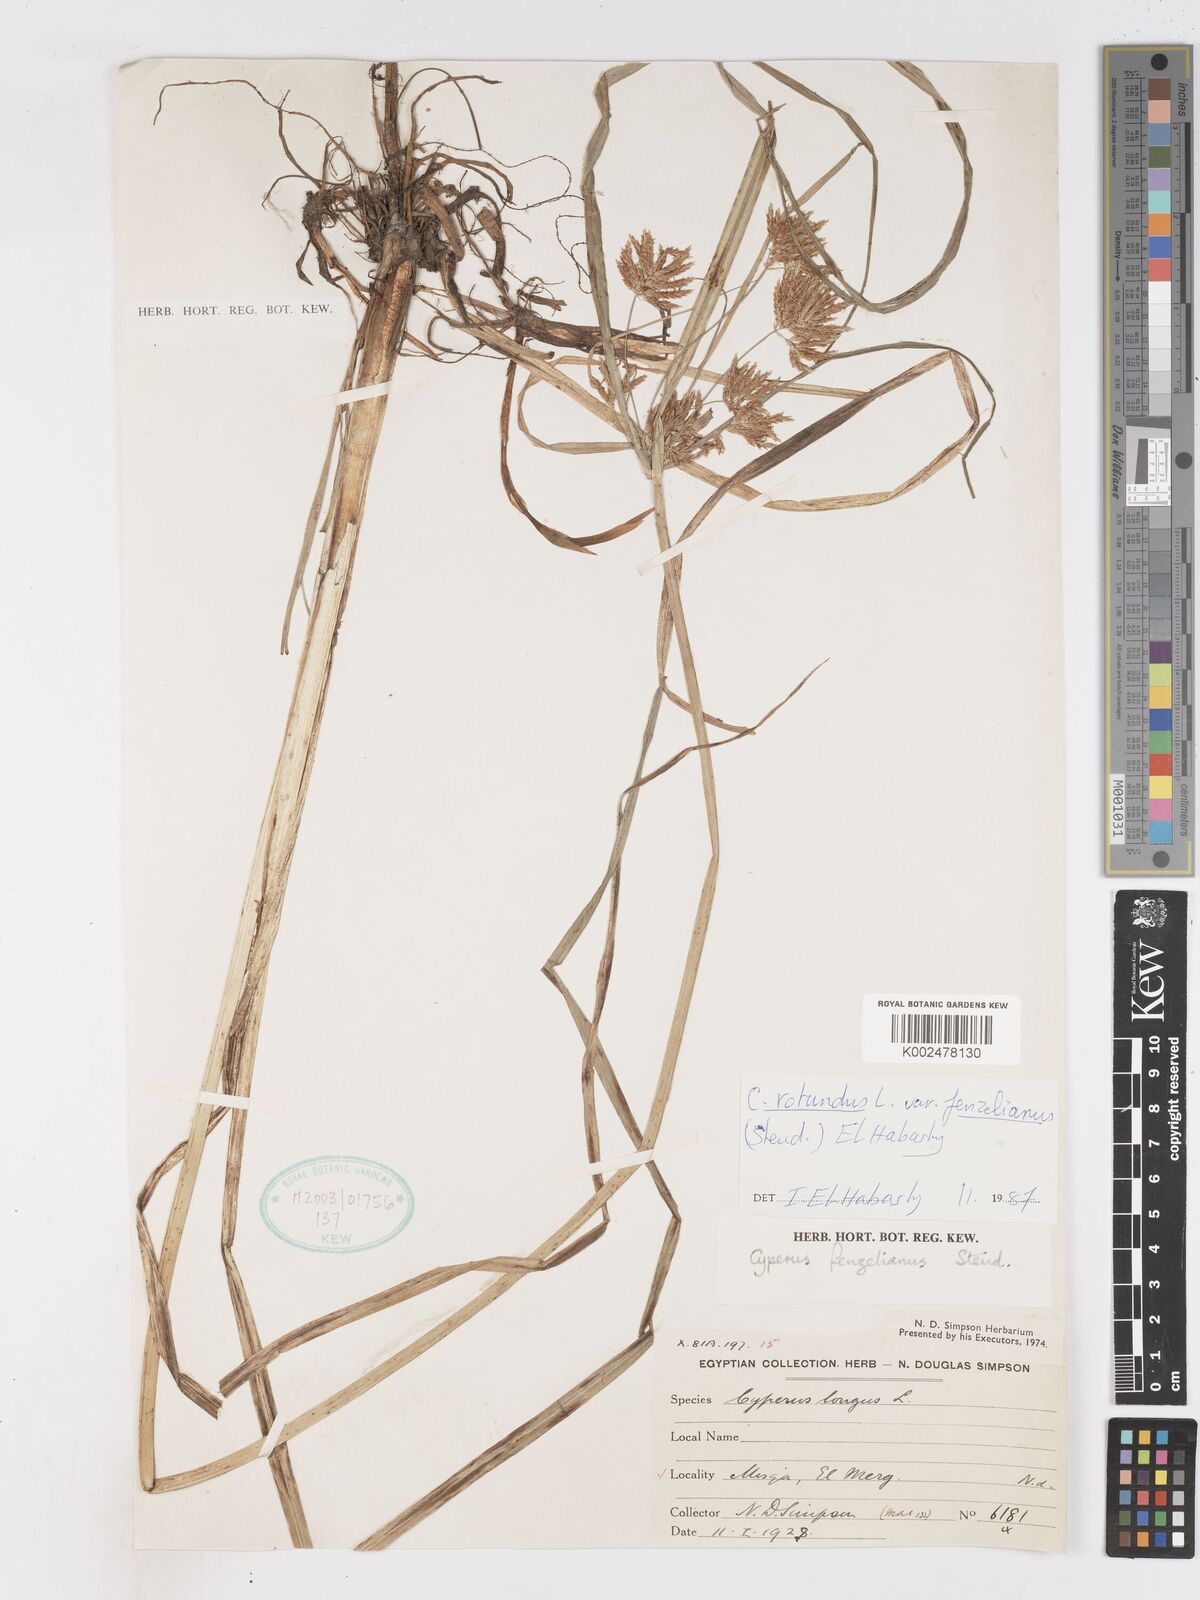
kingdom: Plantae
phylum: Tracheophyta
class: Liliopsida
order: Poales
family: Cyperaceae
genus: Cyperus
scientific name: Cyperus rotundus
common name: Nutgrass
